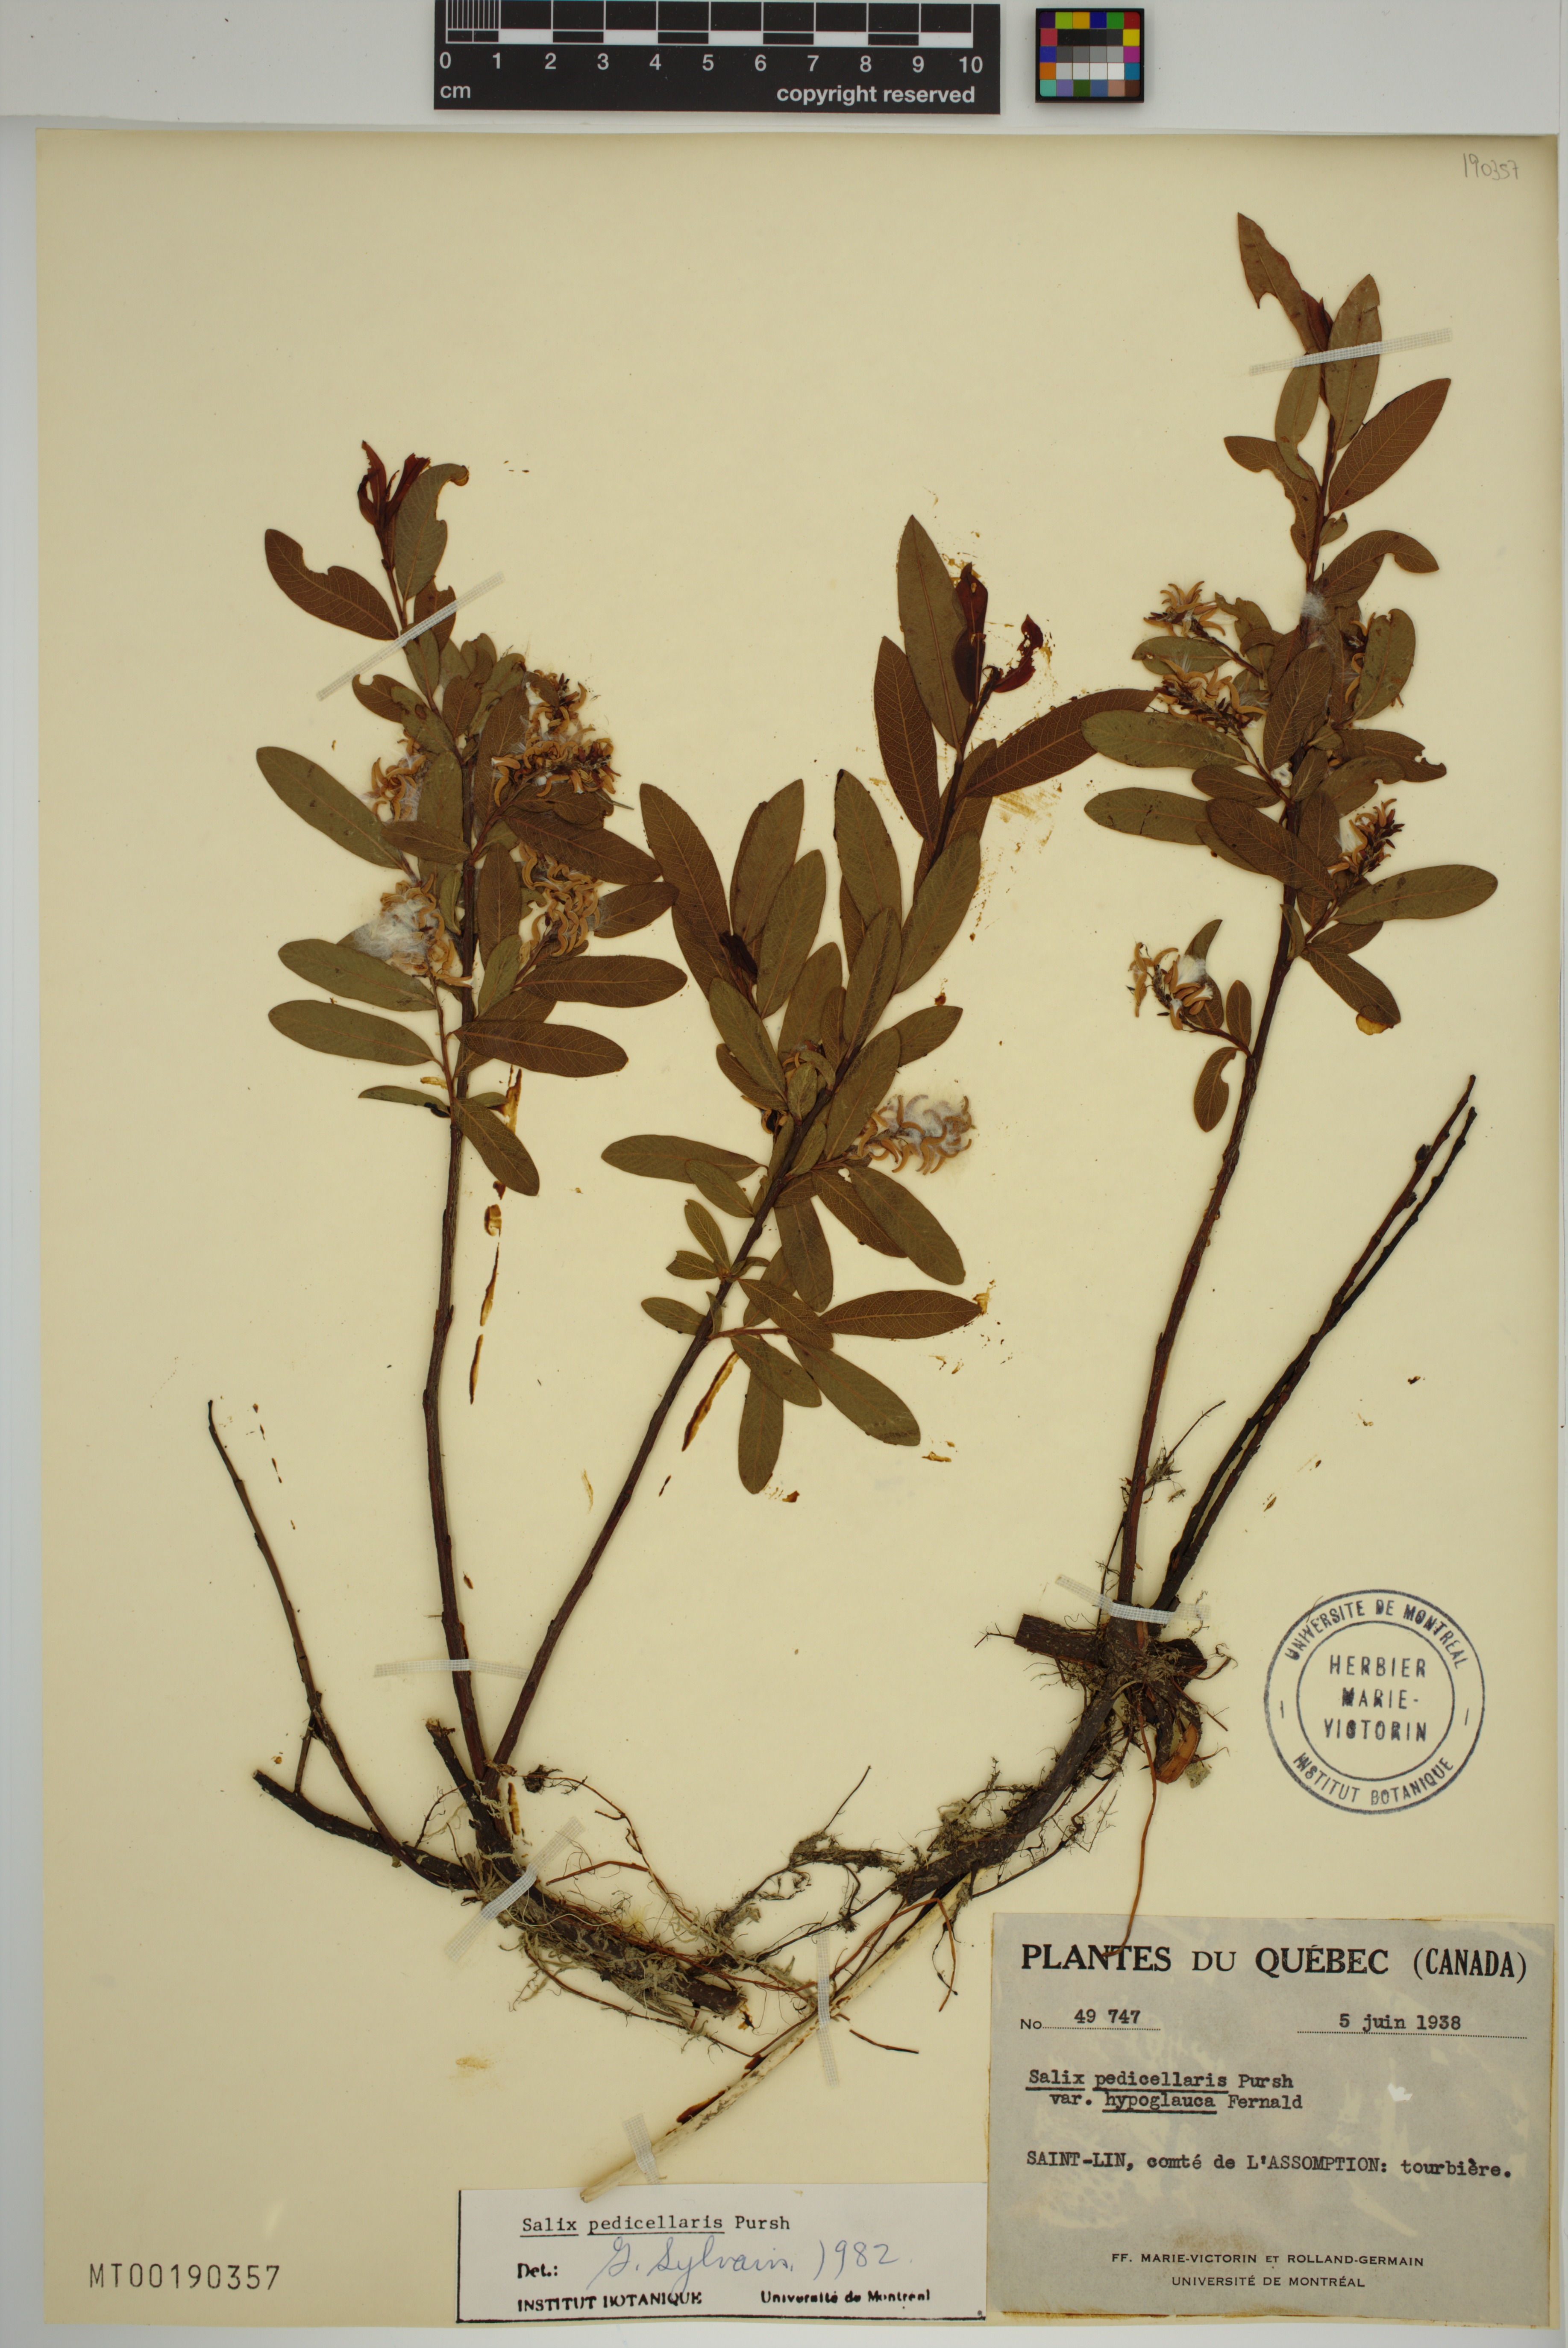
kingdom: Plantae
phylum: Tracheophyta
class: Magnoliopsida
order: Malpighiales
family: Salicaceae
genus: Salix
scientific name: Salix pedicellaris
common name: Bog willow
